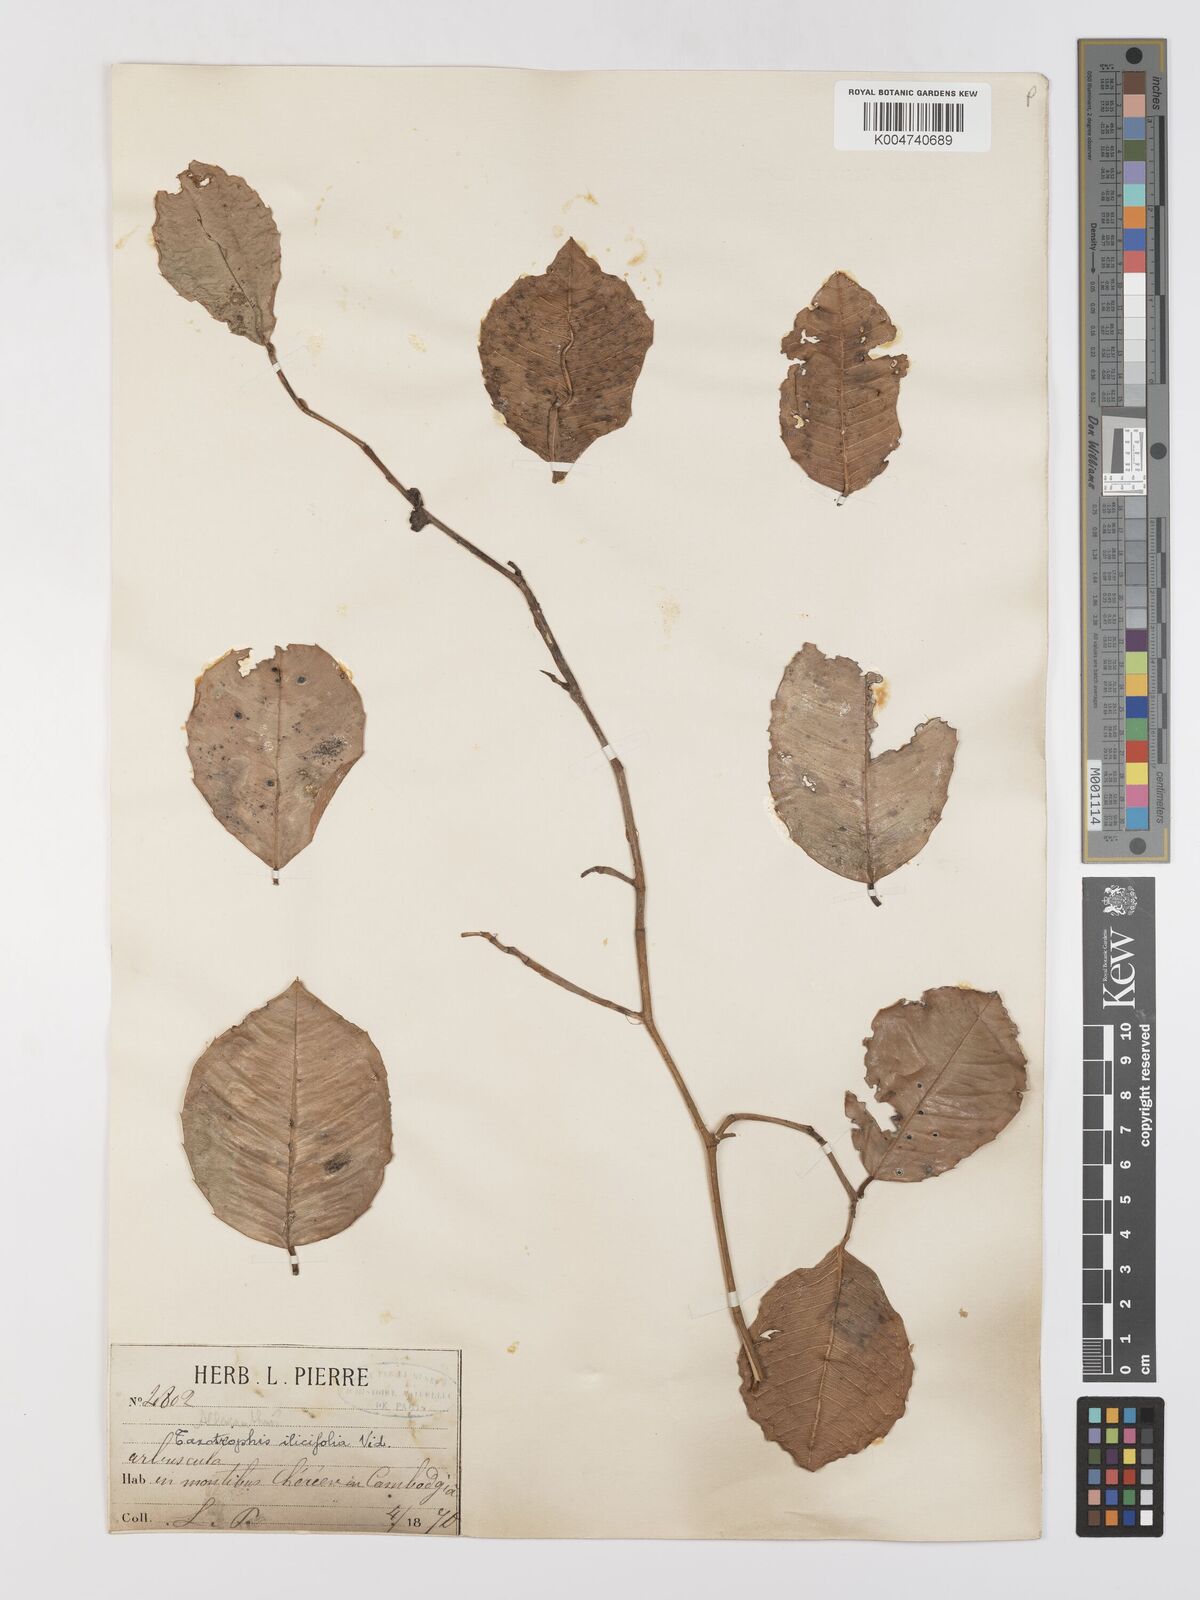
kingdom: Plantae
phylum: Tracheophyta
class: Magnoliopsida
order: Rosales
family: Moraceae
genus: Taxotrophis
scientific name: Taxotrophis ilicifolia
